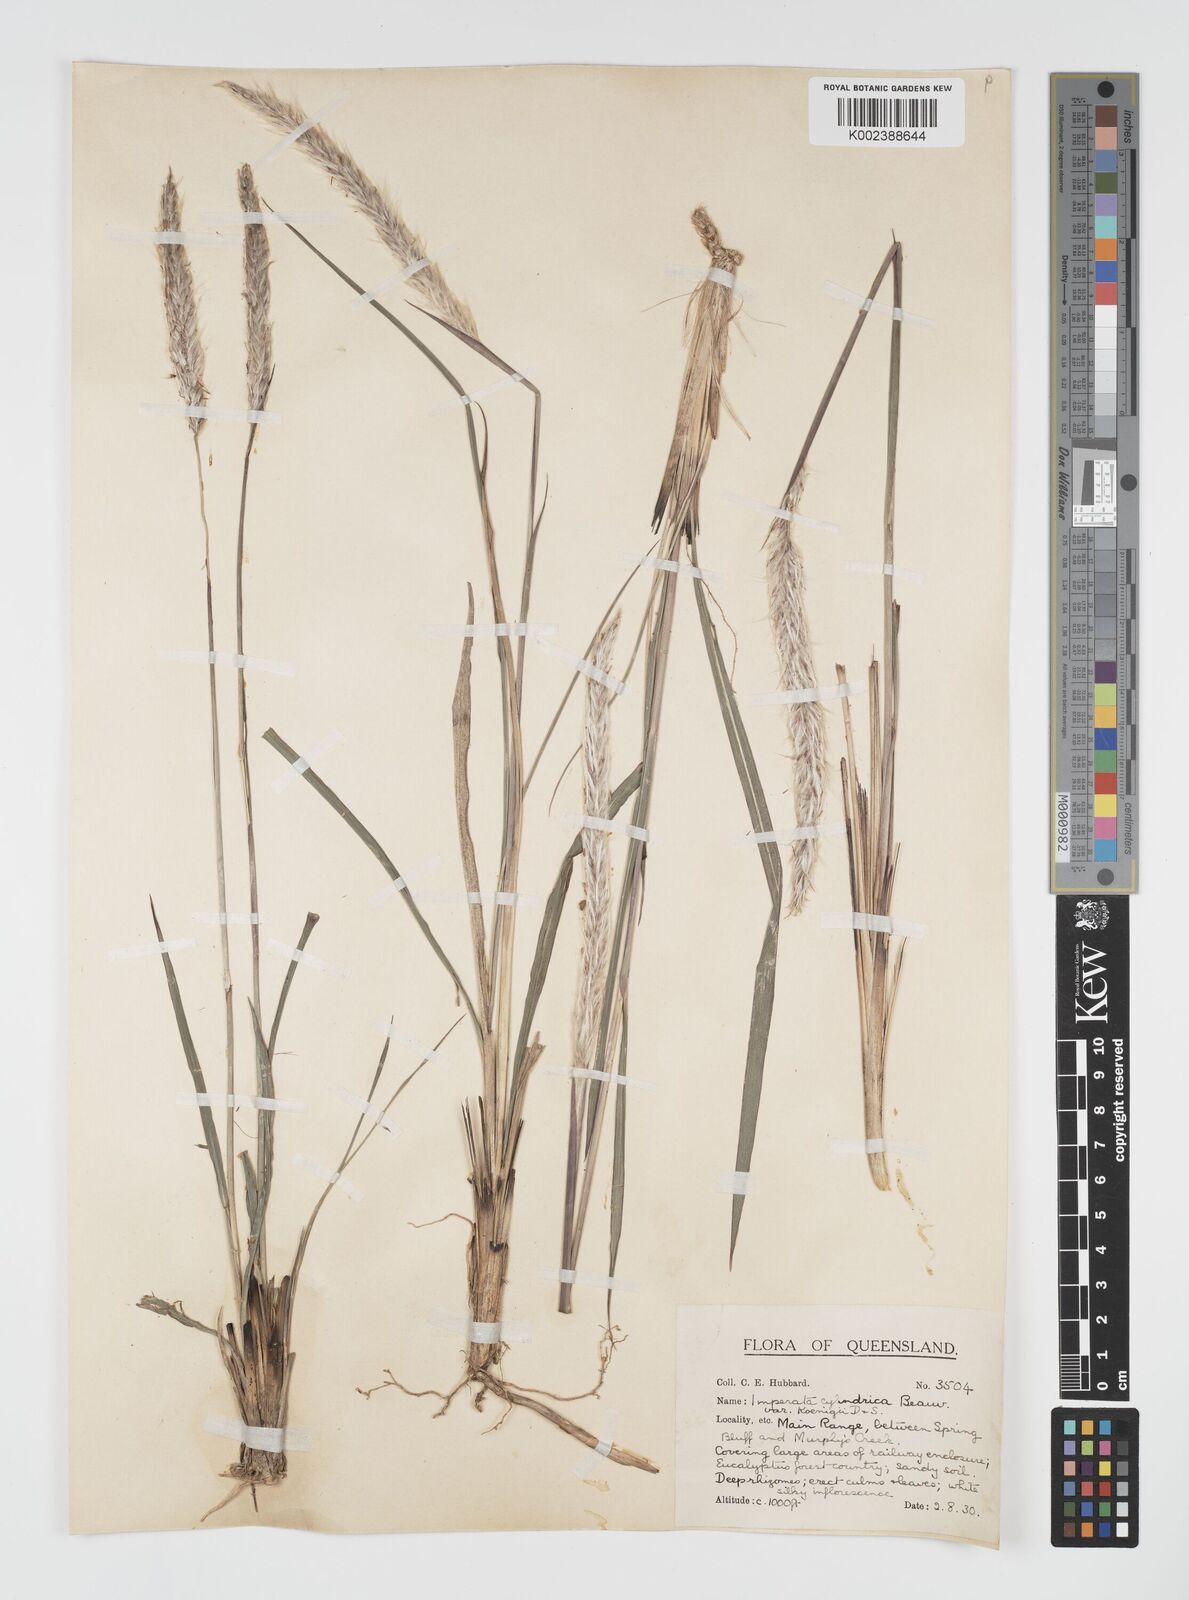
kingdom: Plantae
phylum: Tracheophyta
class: Liliopsida
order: Poales
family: Poaceae
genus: Imperata
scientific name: Imperata cylindrica
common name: Cogongrass
